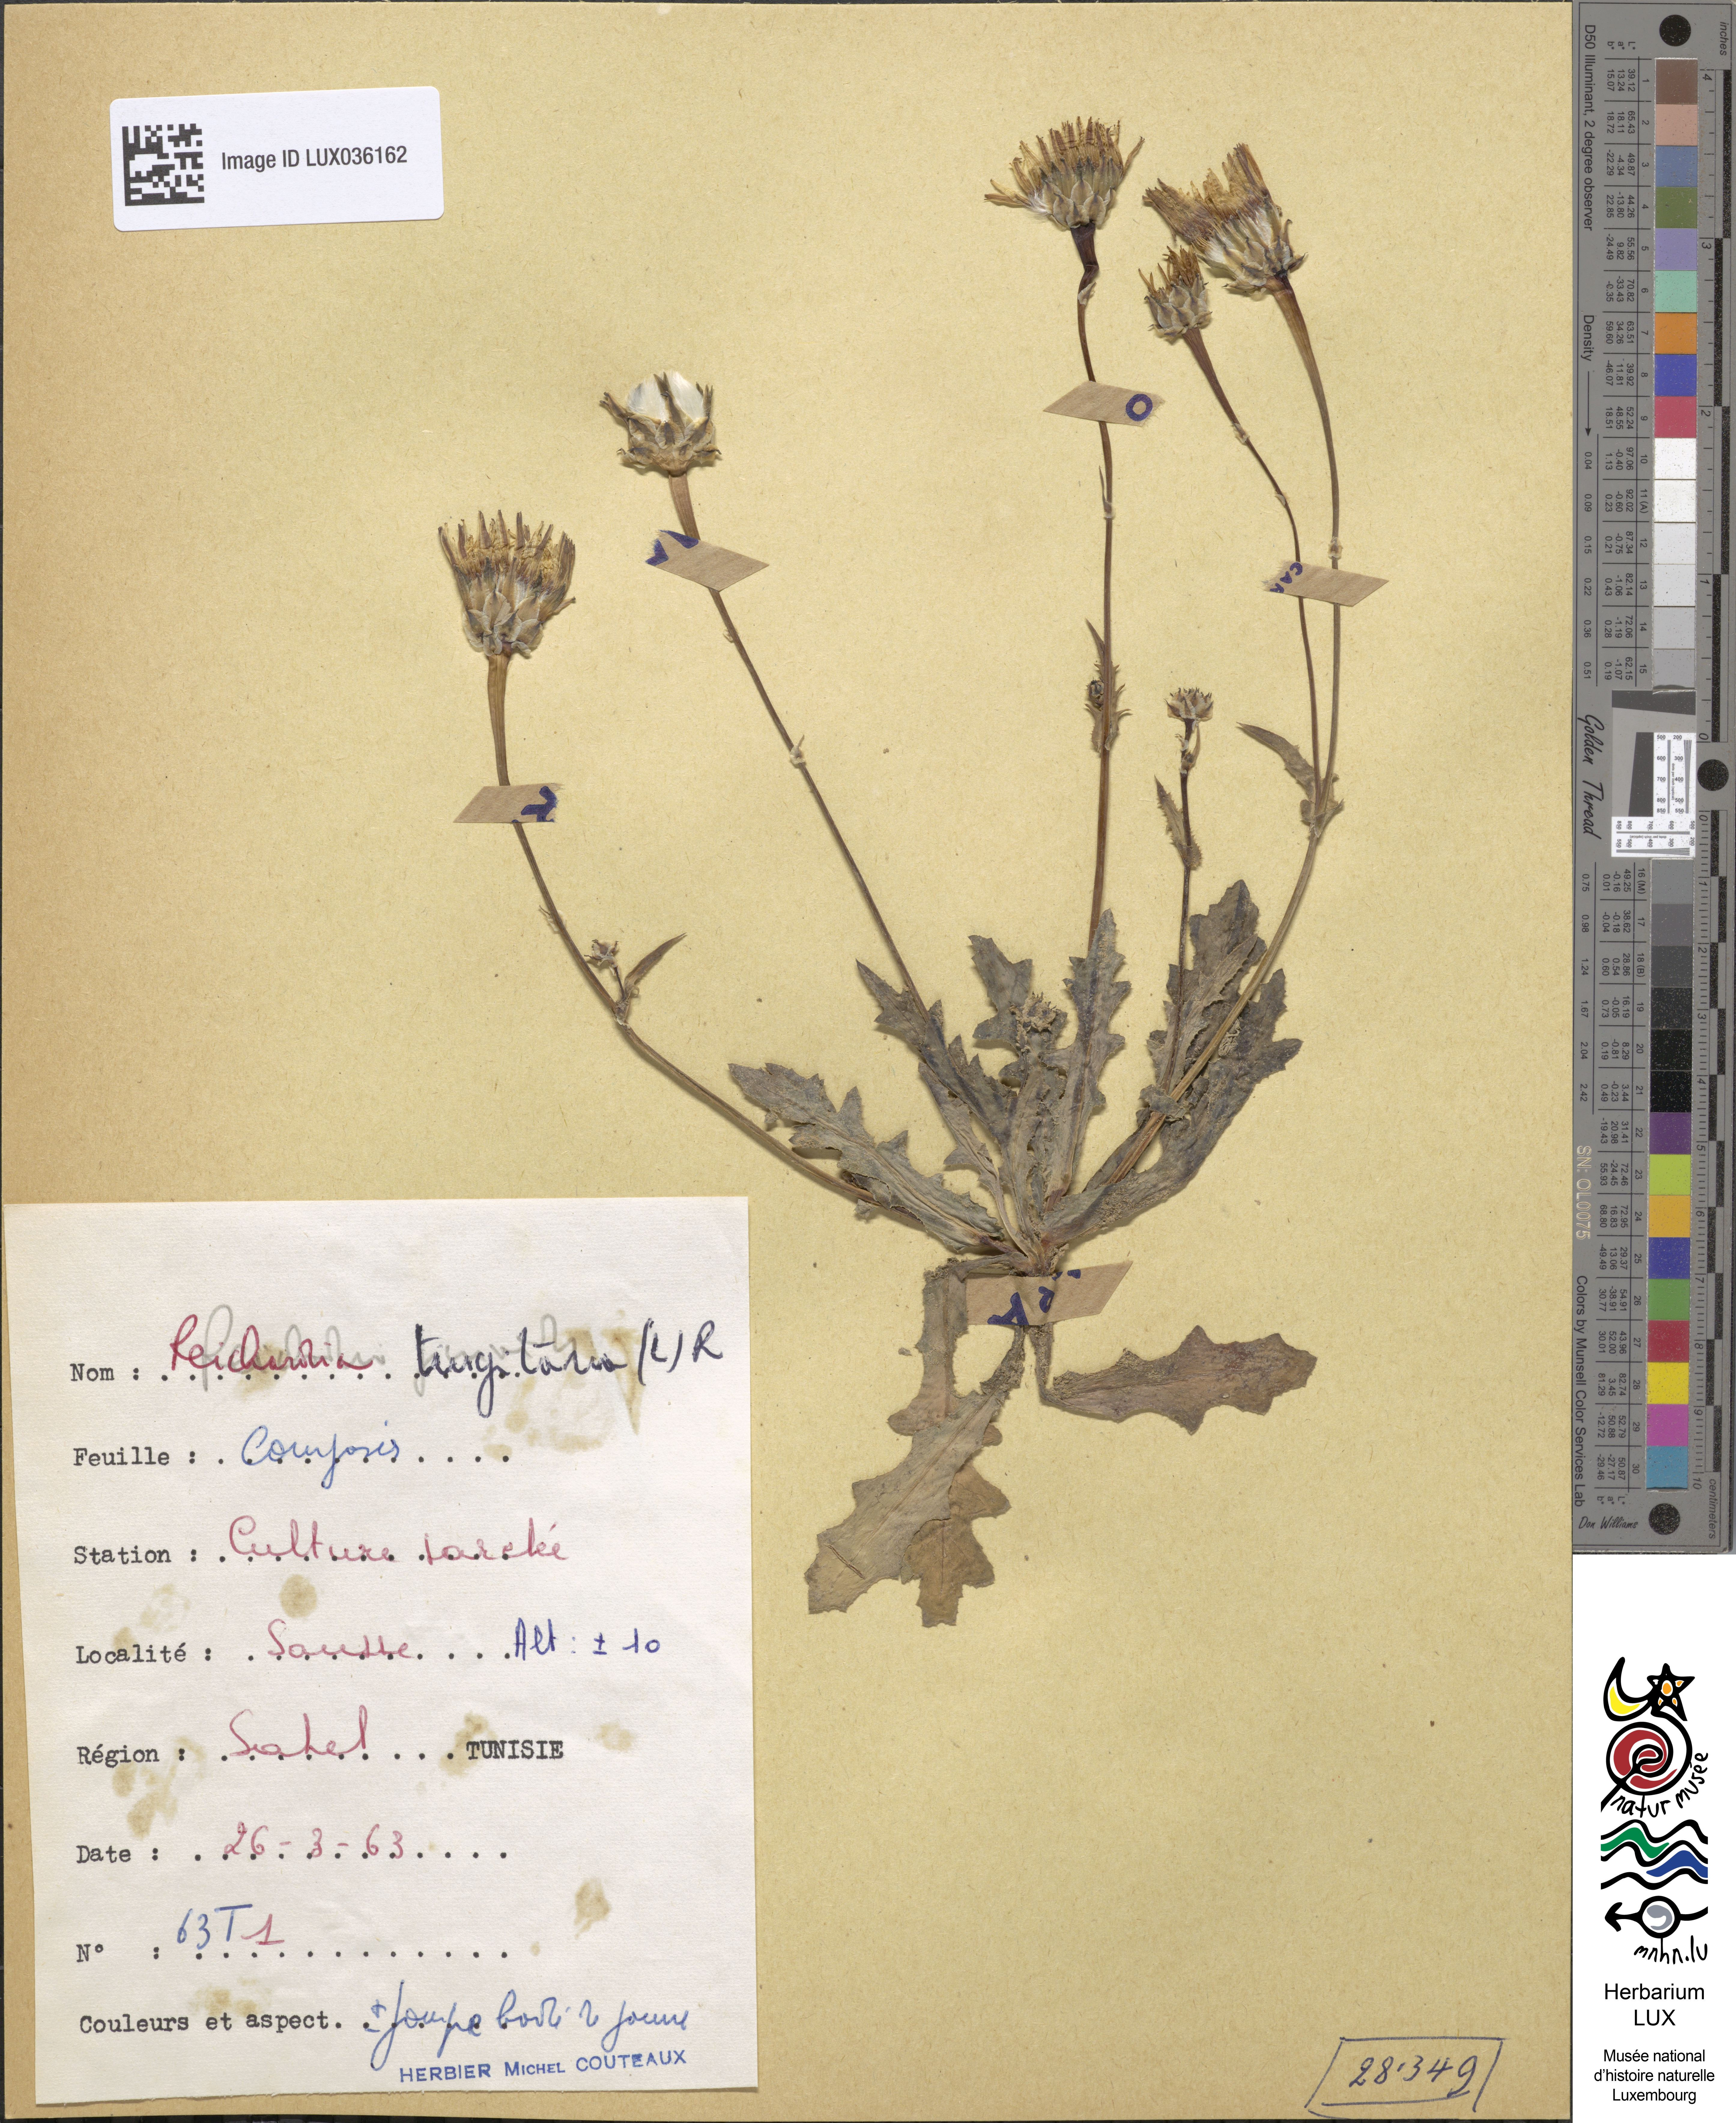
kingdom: Plantae
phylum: Tracheophyta
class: Magnoliopsida
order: Asterales
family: Asteraceae
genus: Reichardia
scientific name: Reichardia tingitana
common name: Reichardia
